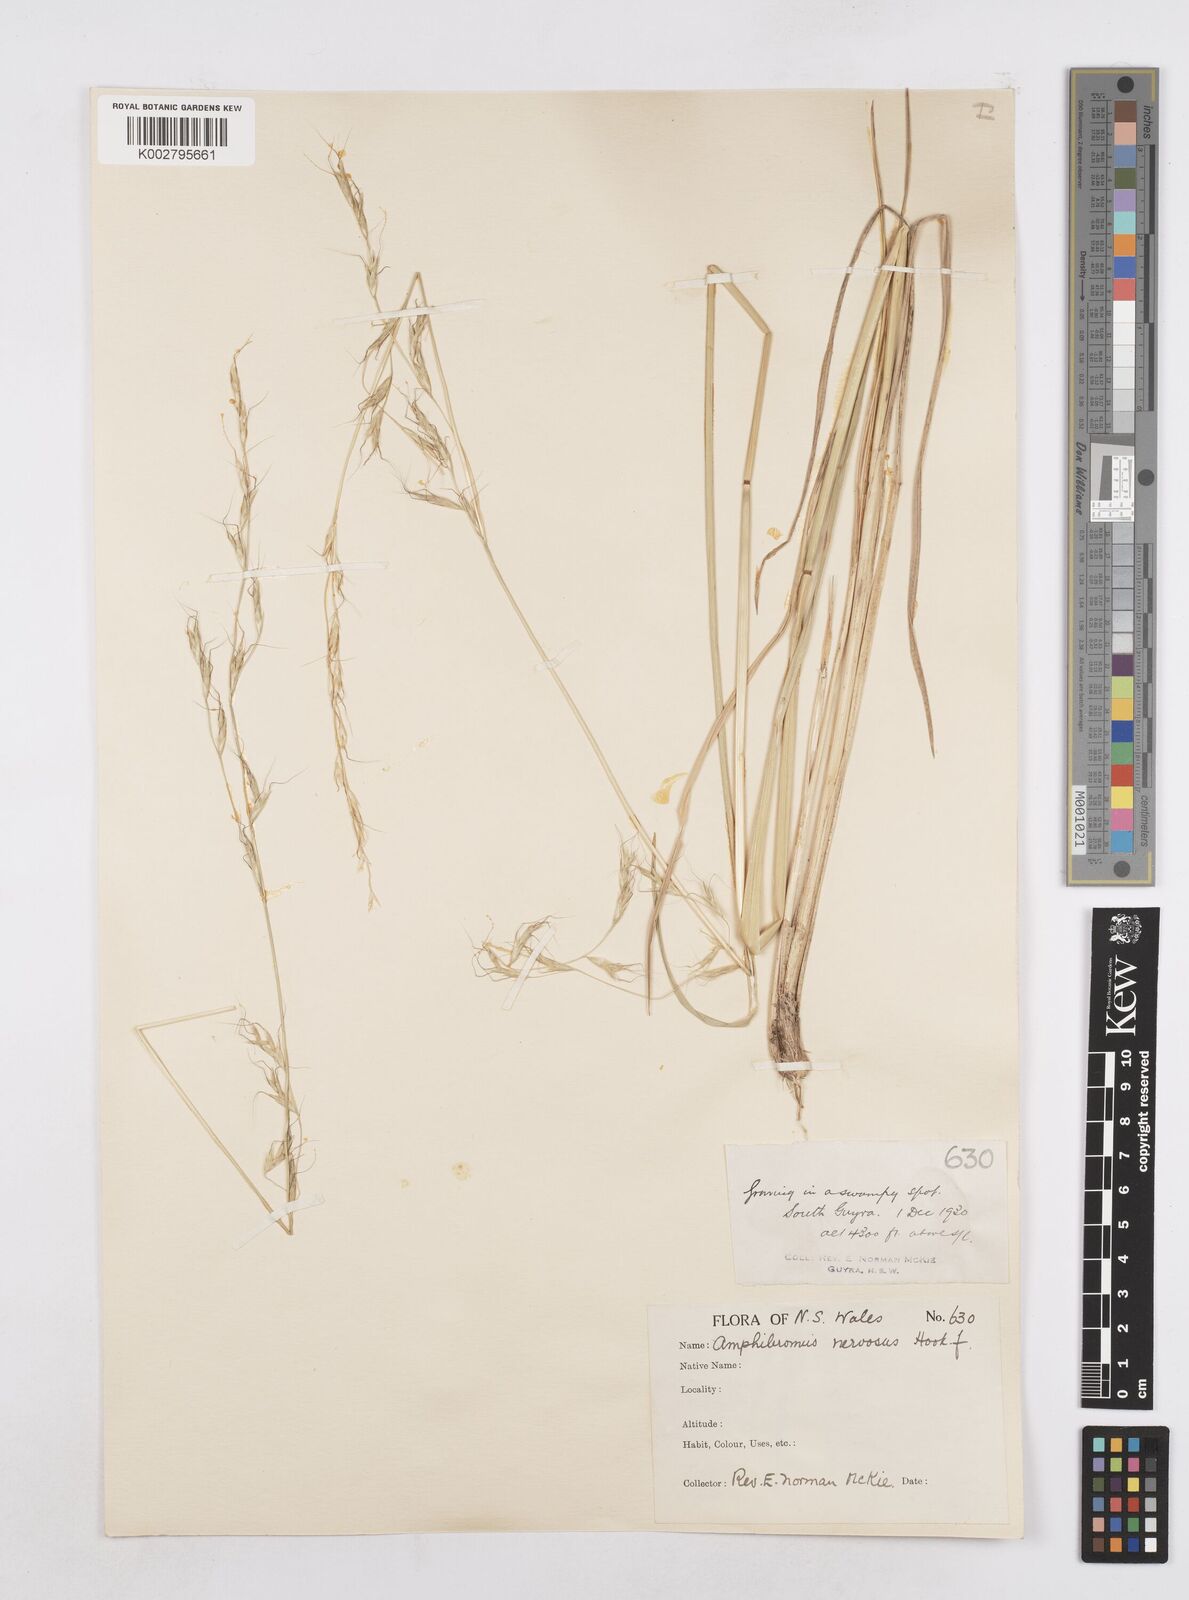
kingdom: Plantae
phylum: Tracheophyta
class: Liliopsida
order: Poales
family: Poaceae
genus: Amphibromus
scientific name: Amphibromus neesii
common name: Australian wallaby grass
